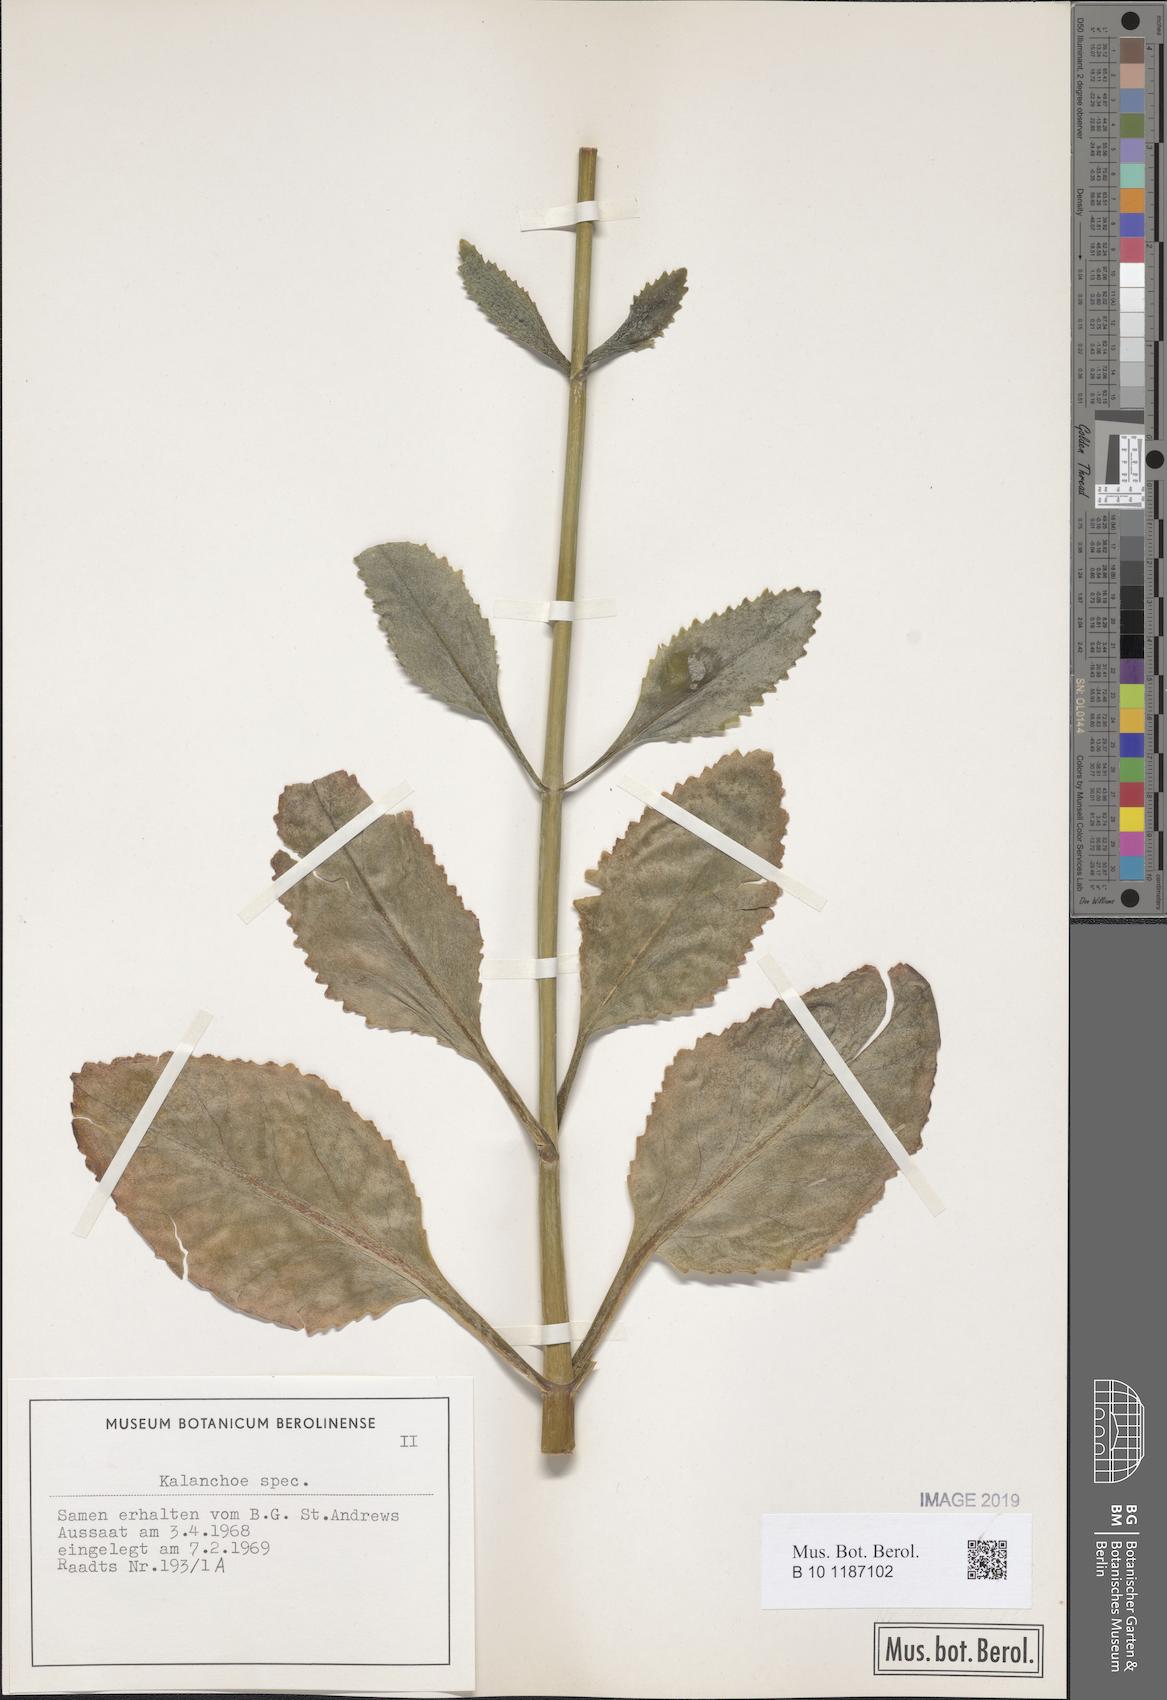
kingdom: Plantae
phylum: Tracheophyta
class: Magnoliopsida
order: Saxifragales
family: Crassulaceae
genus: Kalanchoe
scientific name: Kalanchoe
